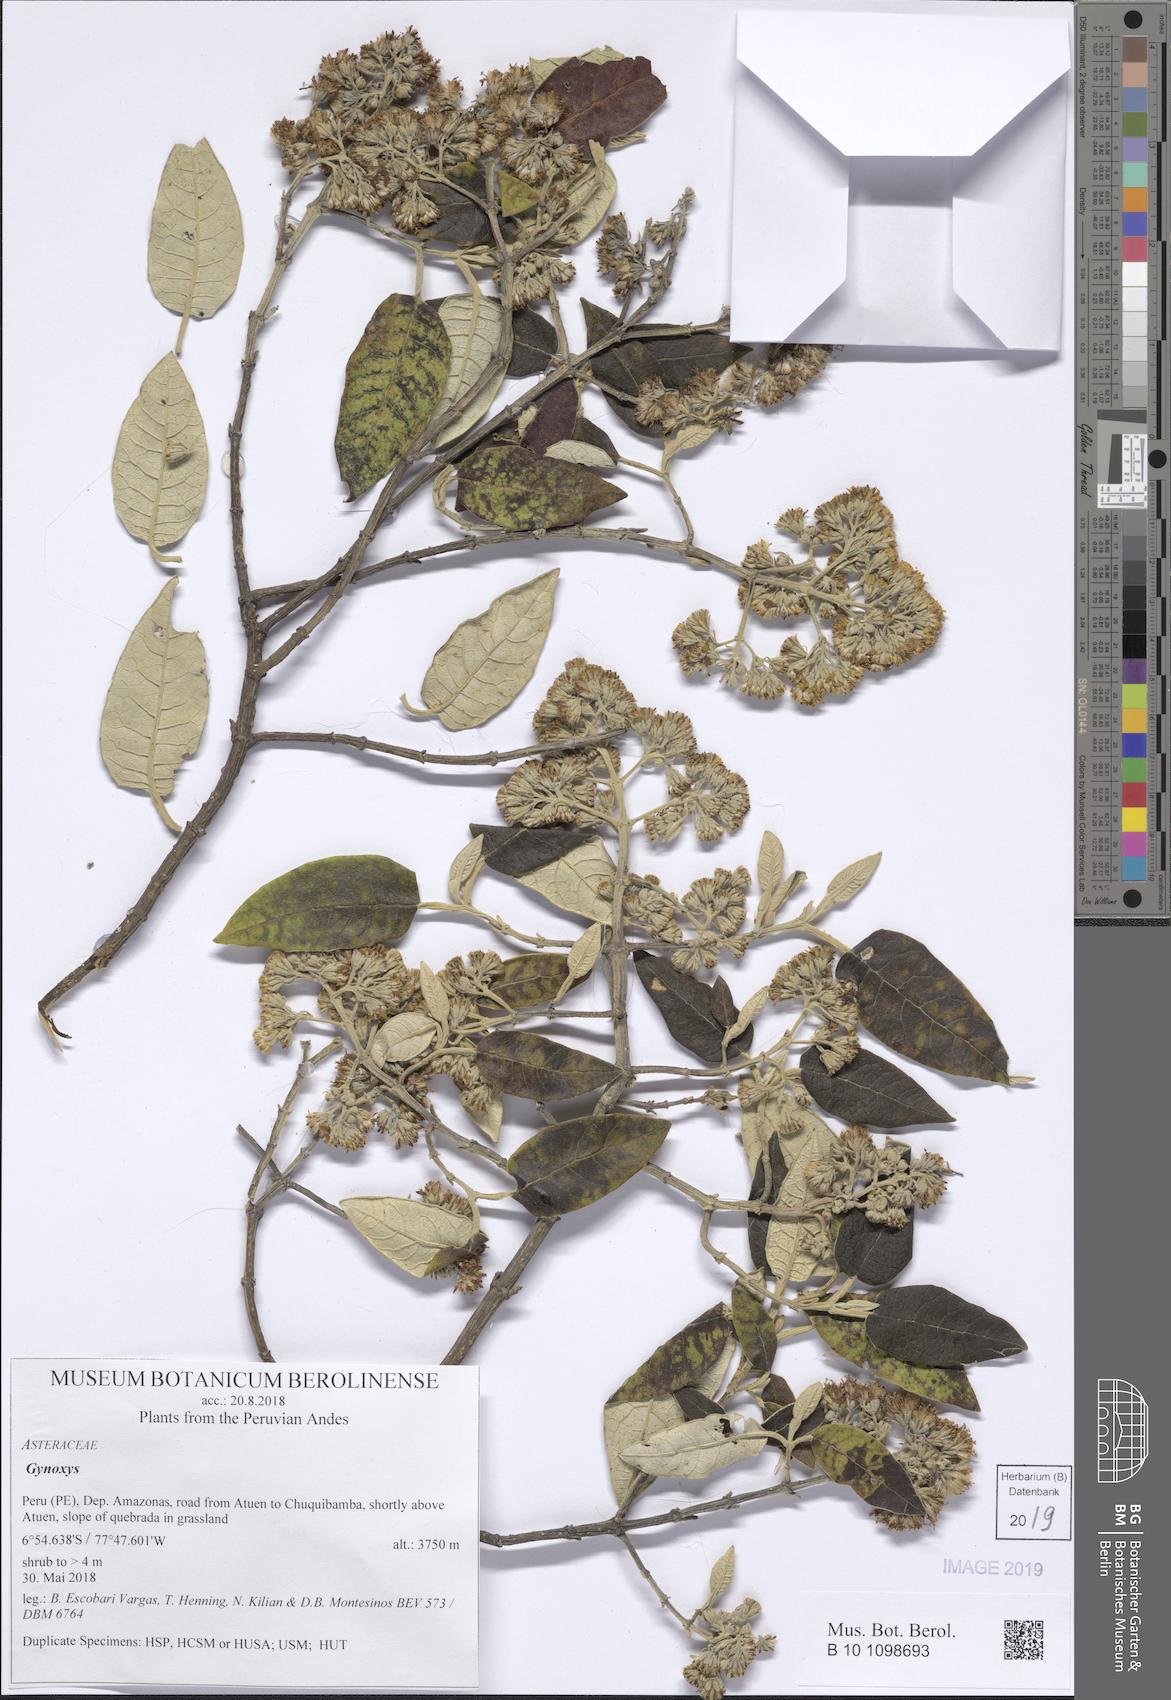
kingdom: Plantae
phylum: Tracheophyta
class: Magnoliopsida
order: Asterales
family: Asteraceae
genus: Gynoxys
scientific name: Gynoxys
